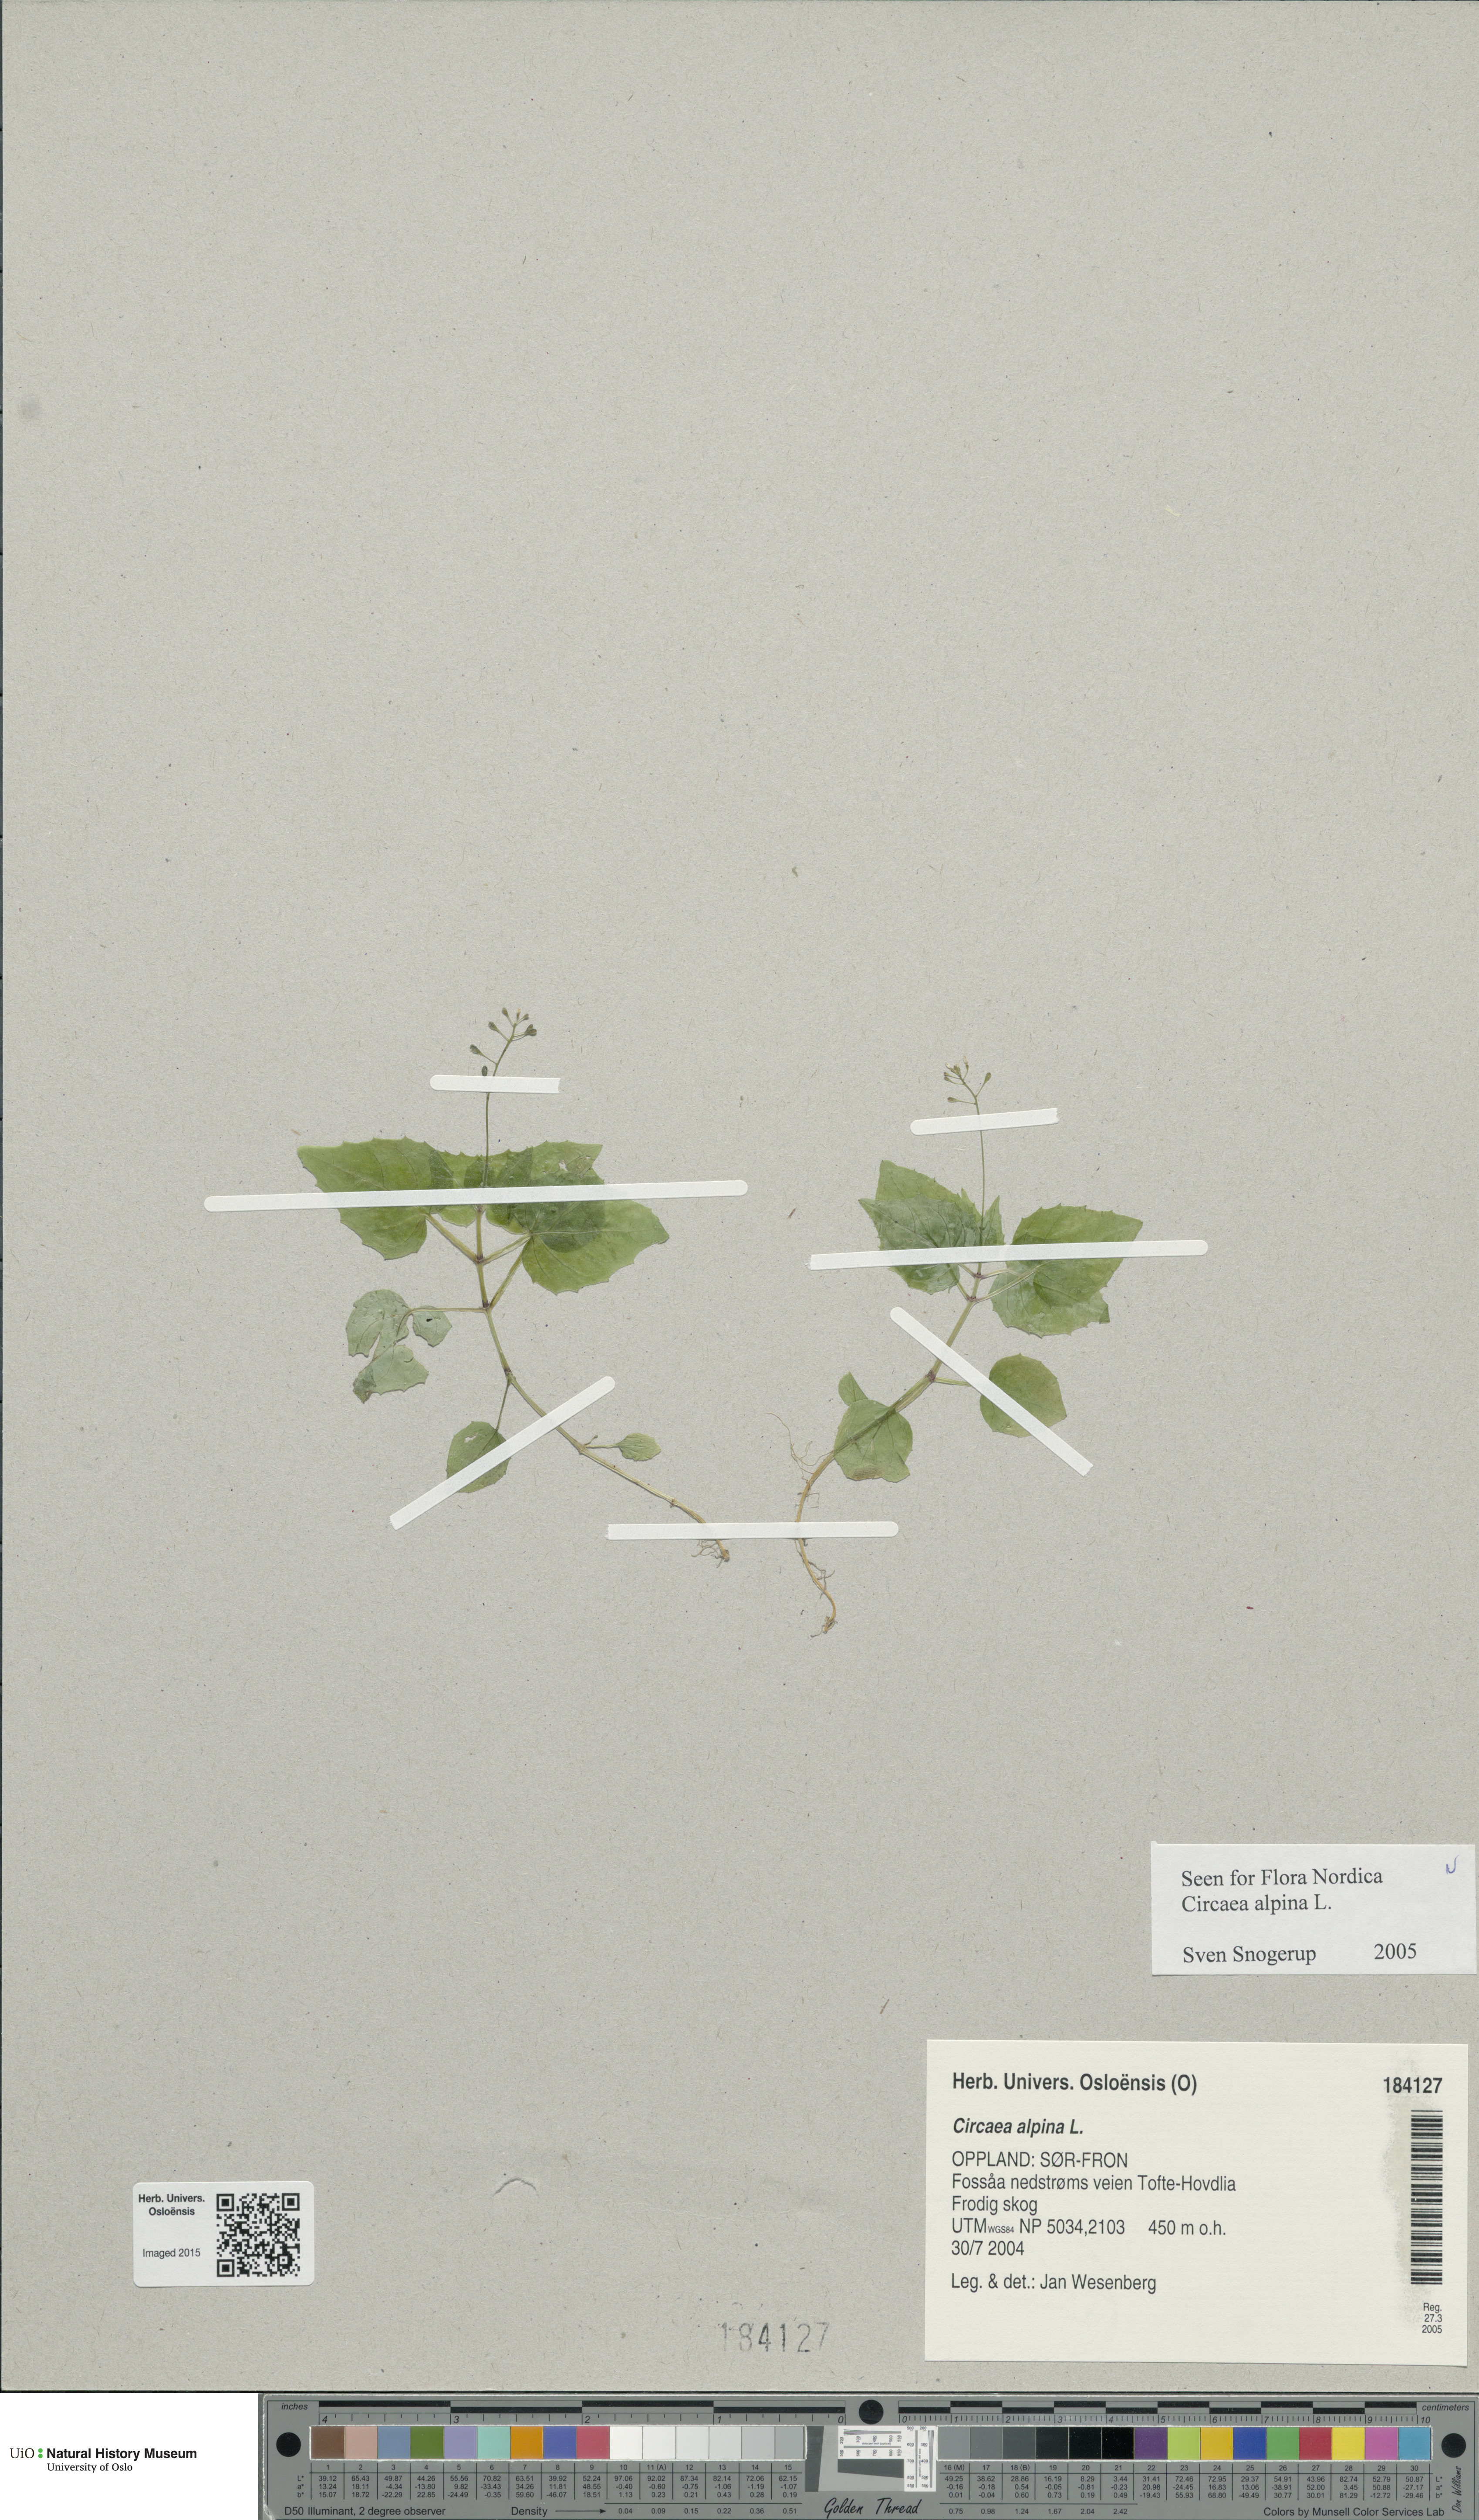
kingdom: Plantae
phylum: Tracheophyta
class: Magnoliopsida
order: Myrtales
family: Onagraceae
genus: Circaea
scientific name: Circaea alpina
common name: Alpine enchanter's-nightshade
